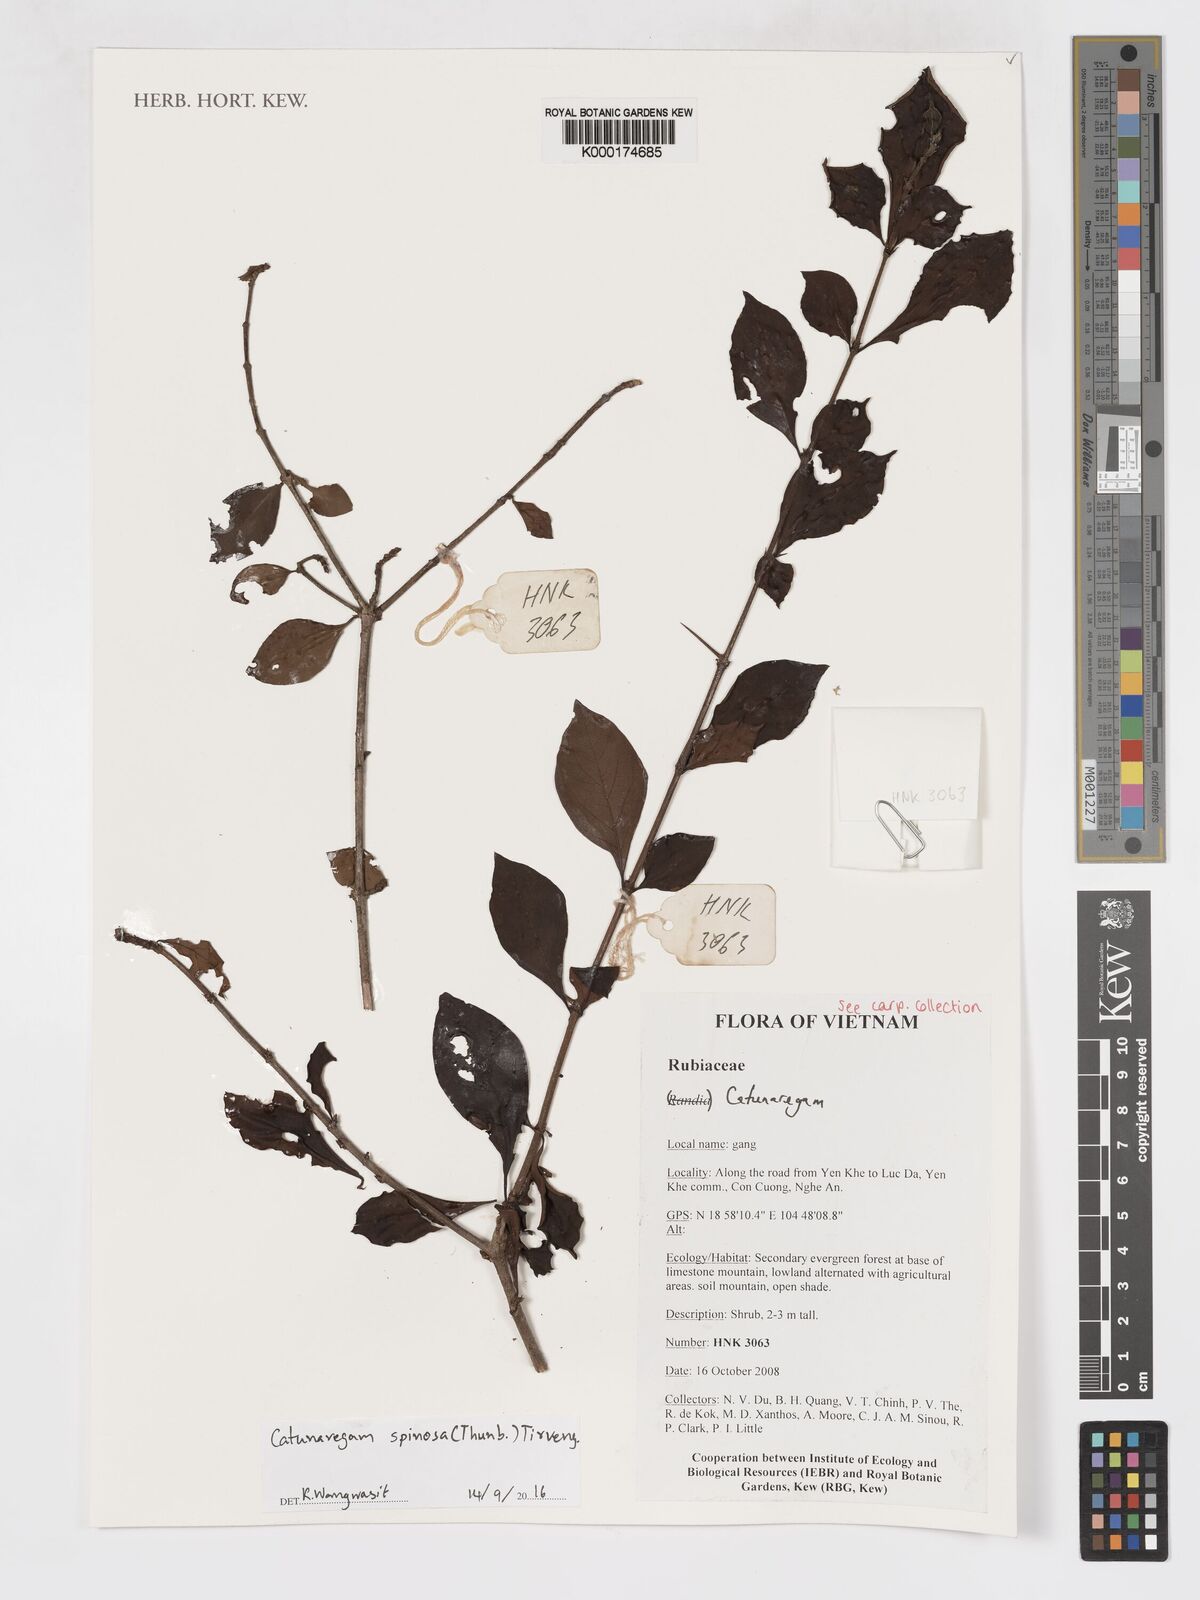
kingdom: Plantae
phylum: Tracheophyta
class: Magnoliopsida
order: Gentianales
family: Rubiaceae
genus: Catunaregam
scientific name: Catunaregam spinosa
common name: Emetic-nut
